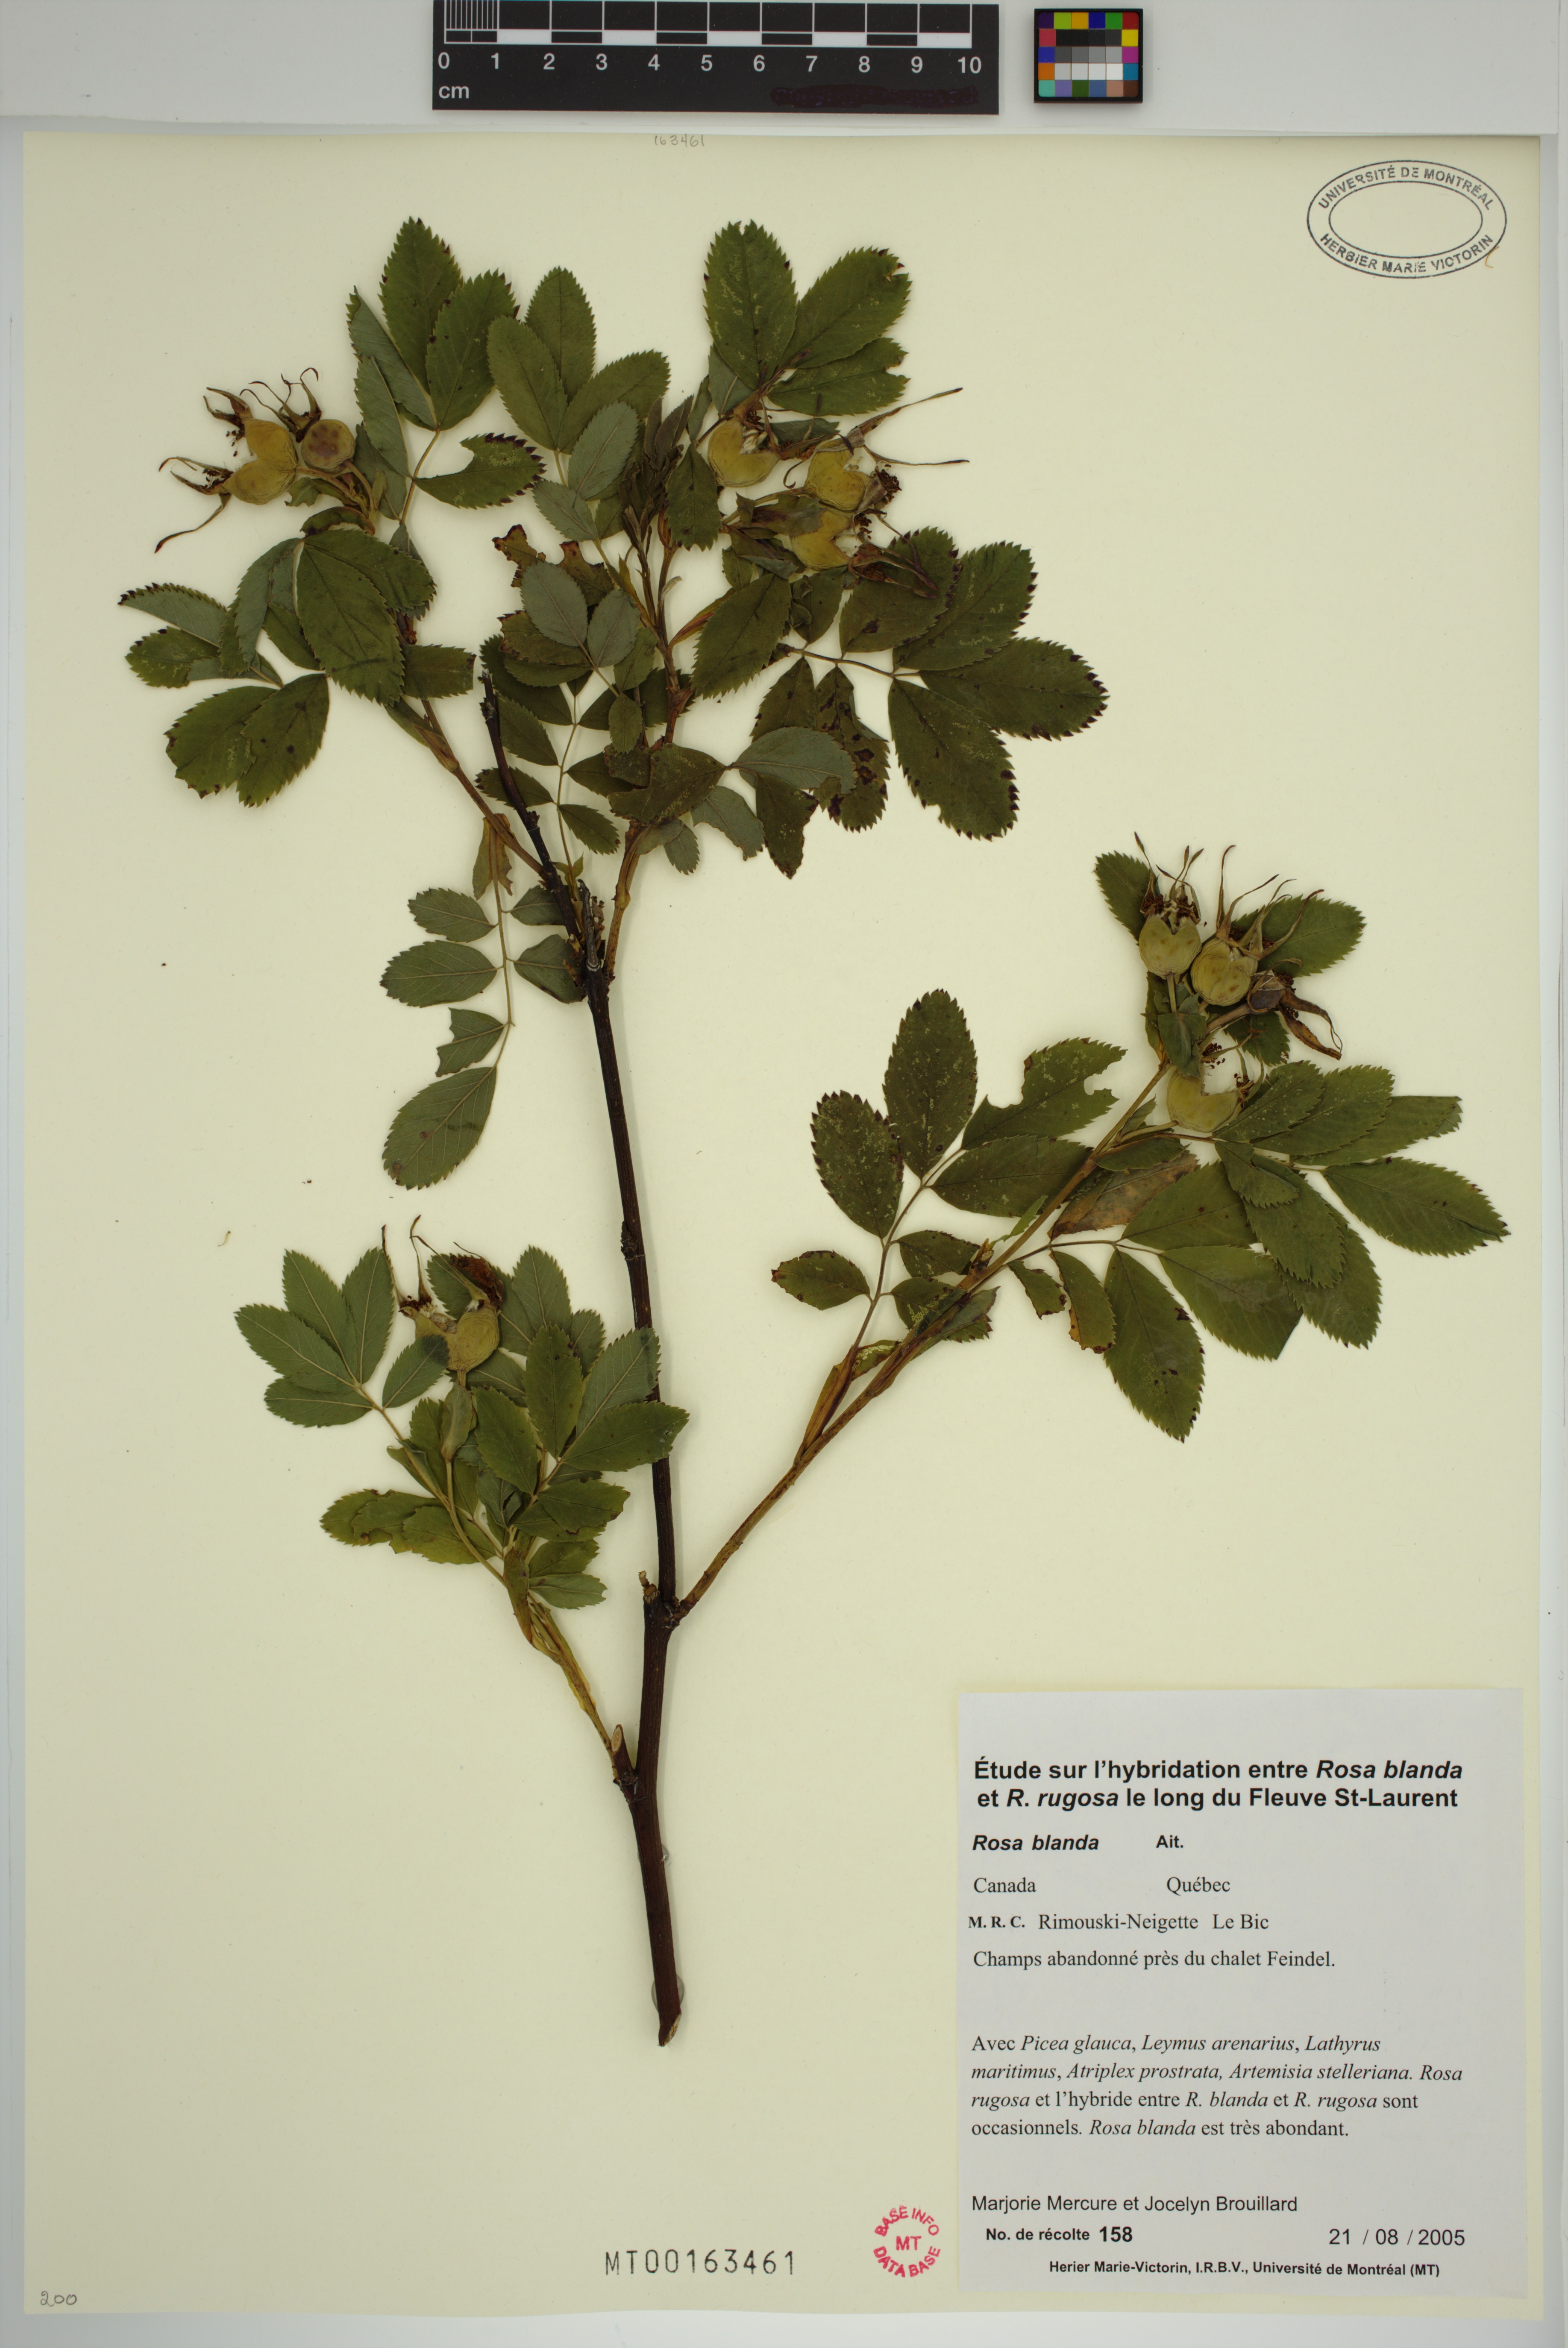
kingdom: Plantae
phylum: Tracheophyta
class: Magnoliopsida
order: Rosales
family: Rosaceae
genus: Rosa
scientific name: Rosa blanda
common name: Smooth rose
